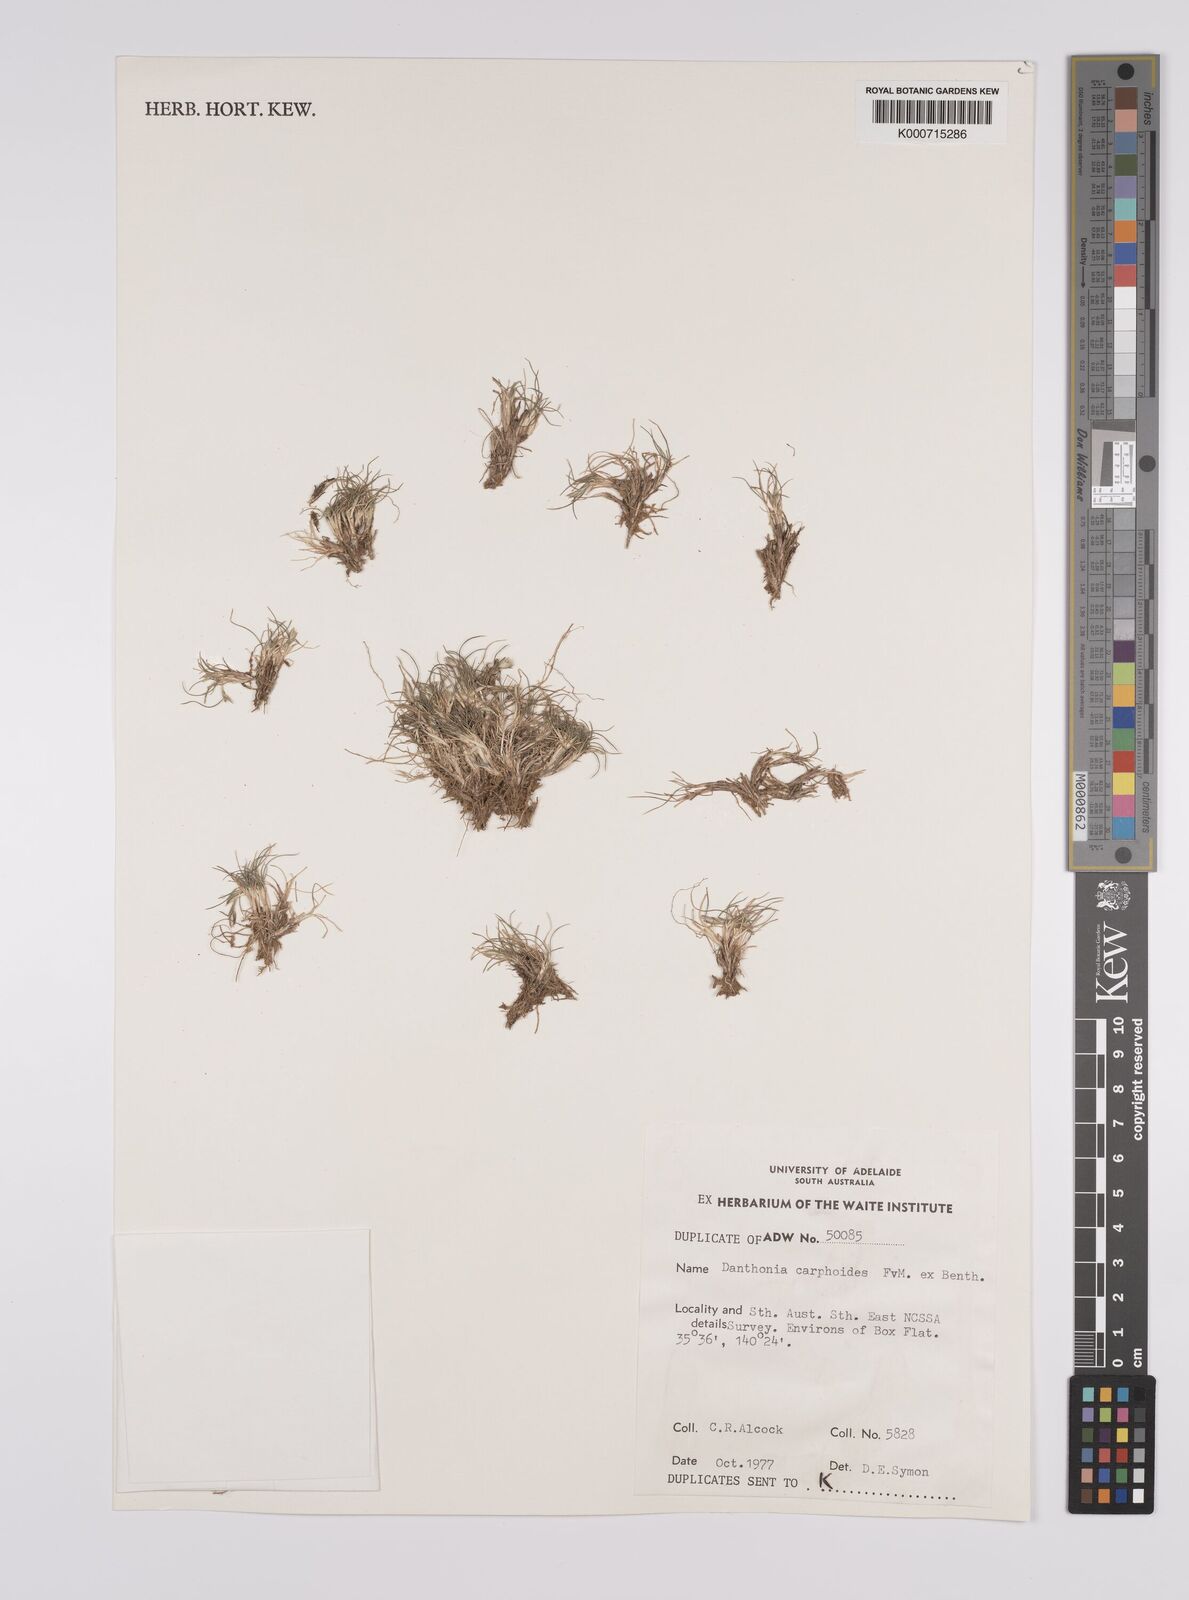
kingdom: Plantae
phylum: Tracheophyta
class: Liliopsida
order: Poales
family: Poaceae
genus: Rytidosperma
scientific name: Rytidosperma carphoides
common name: Short wallaby grass
